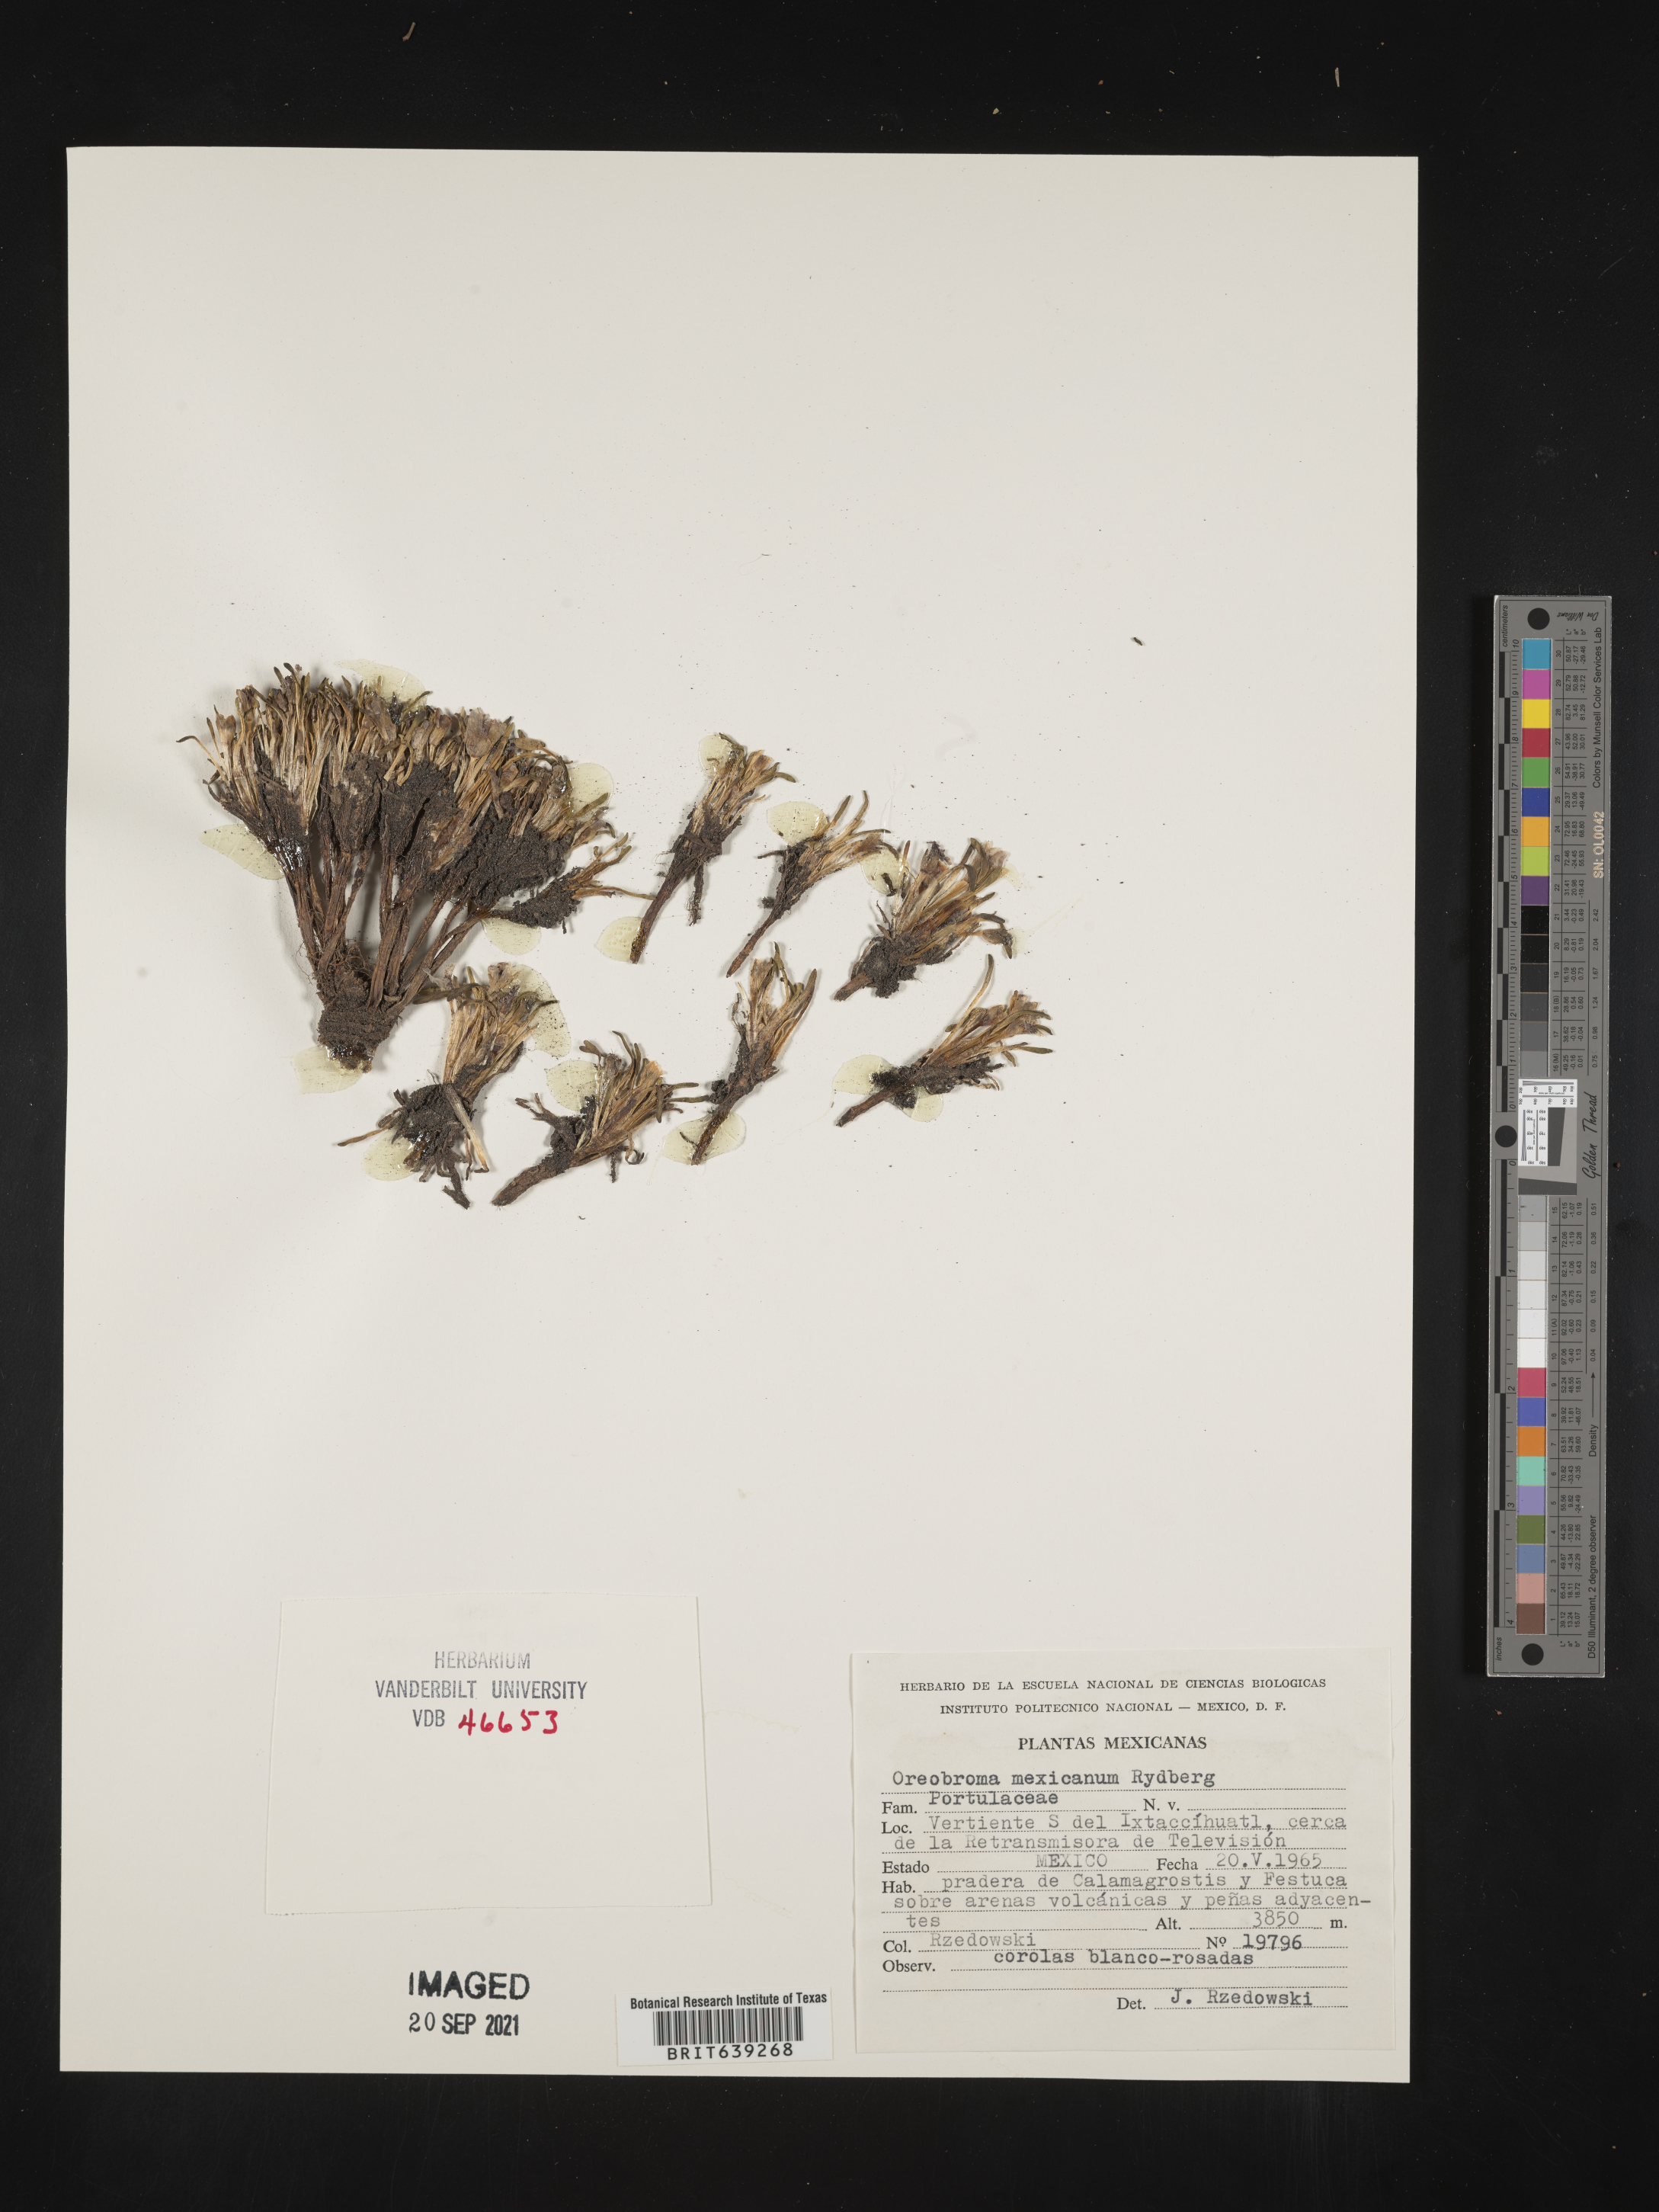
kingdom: Plantae
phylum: Tracheophyta
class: Magnoliopsida
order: Caryophyllales
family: Montiaceae
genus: Lewisia
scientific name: Lewisia
